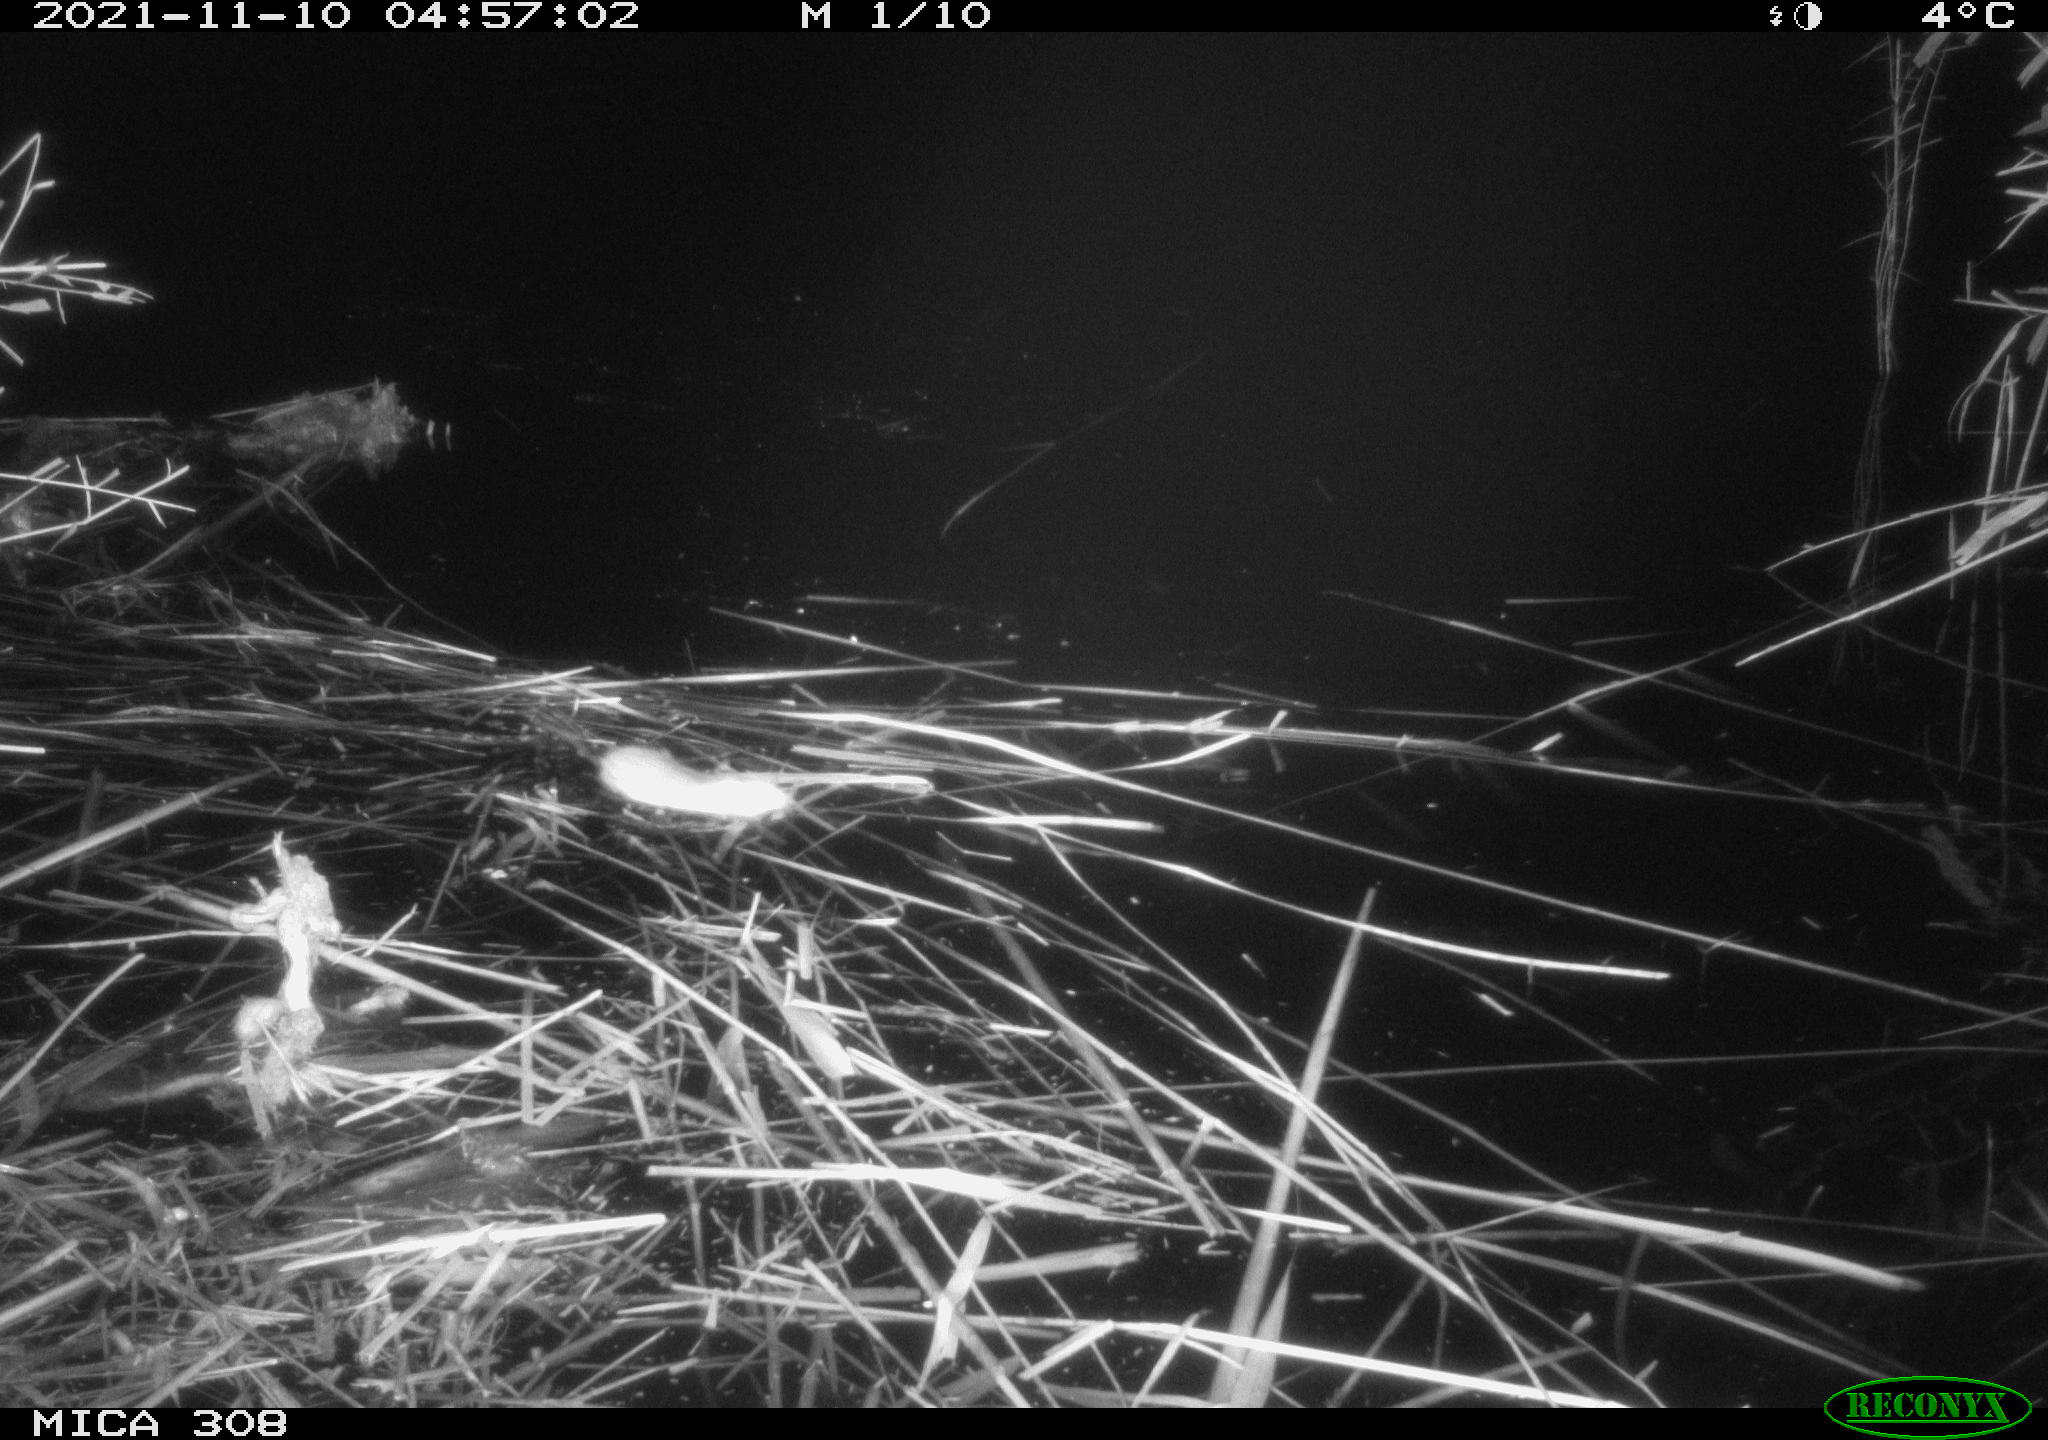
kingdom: Animalia
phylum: Chordata
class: Mammalia
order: Rodentia
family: Muridae
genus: Rattus
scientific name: Rattus norvegicus
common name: Brown rat
